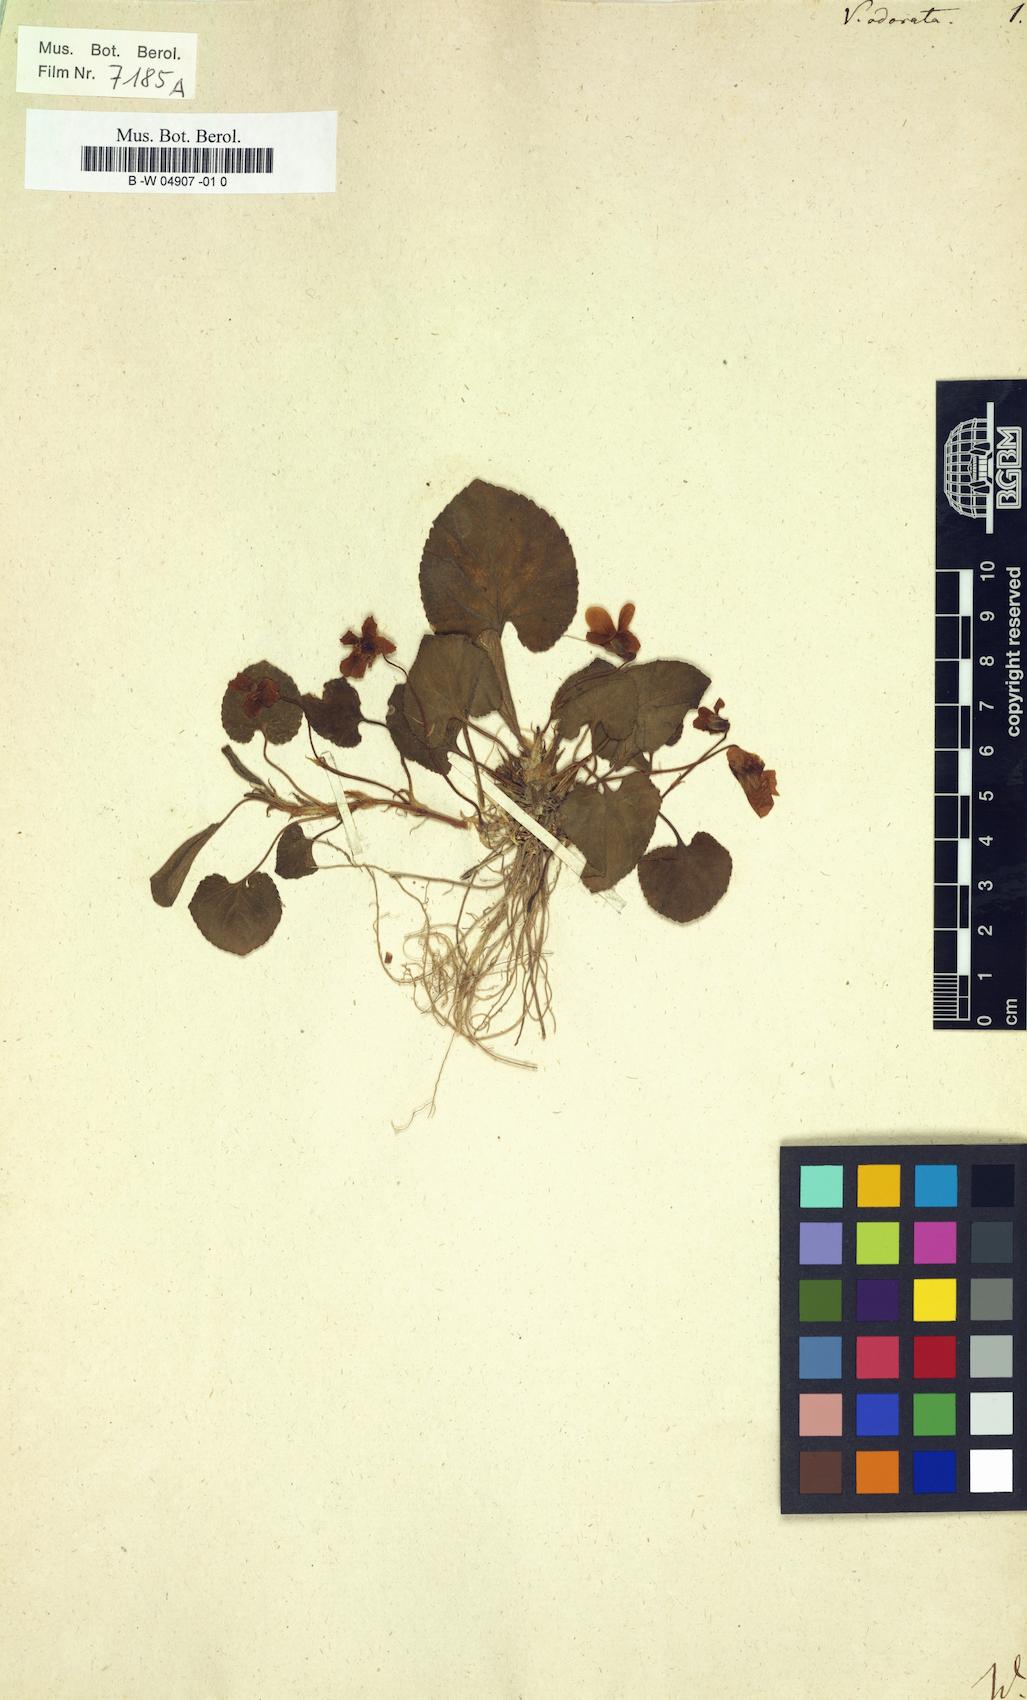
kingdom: Plantae
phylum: Tracheophyta
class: Magnoliopsida
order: Malpighiales
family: Violaceae
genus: Viola
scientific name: Viola odorata
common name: Sweet violet
